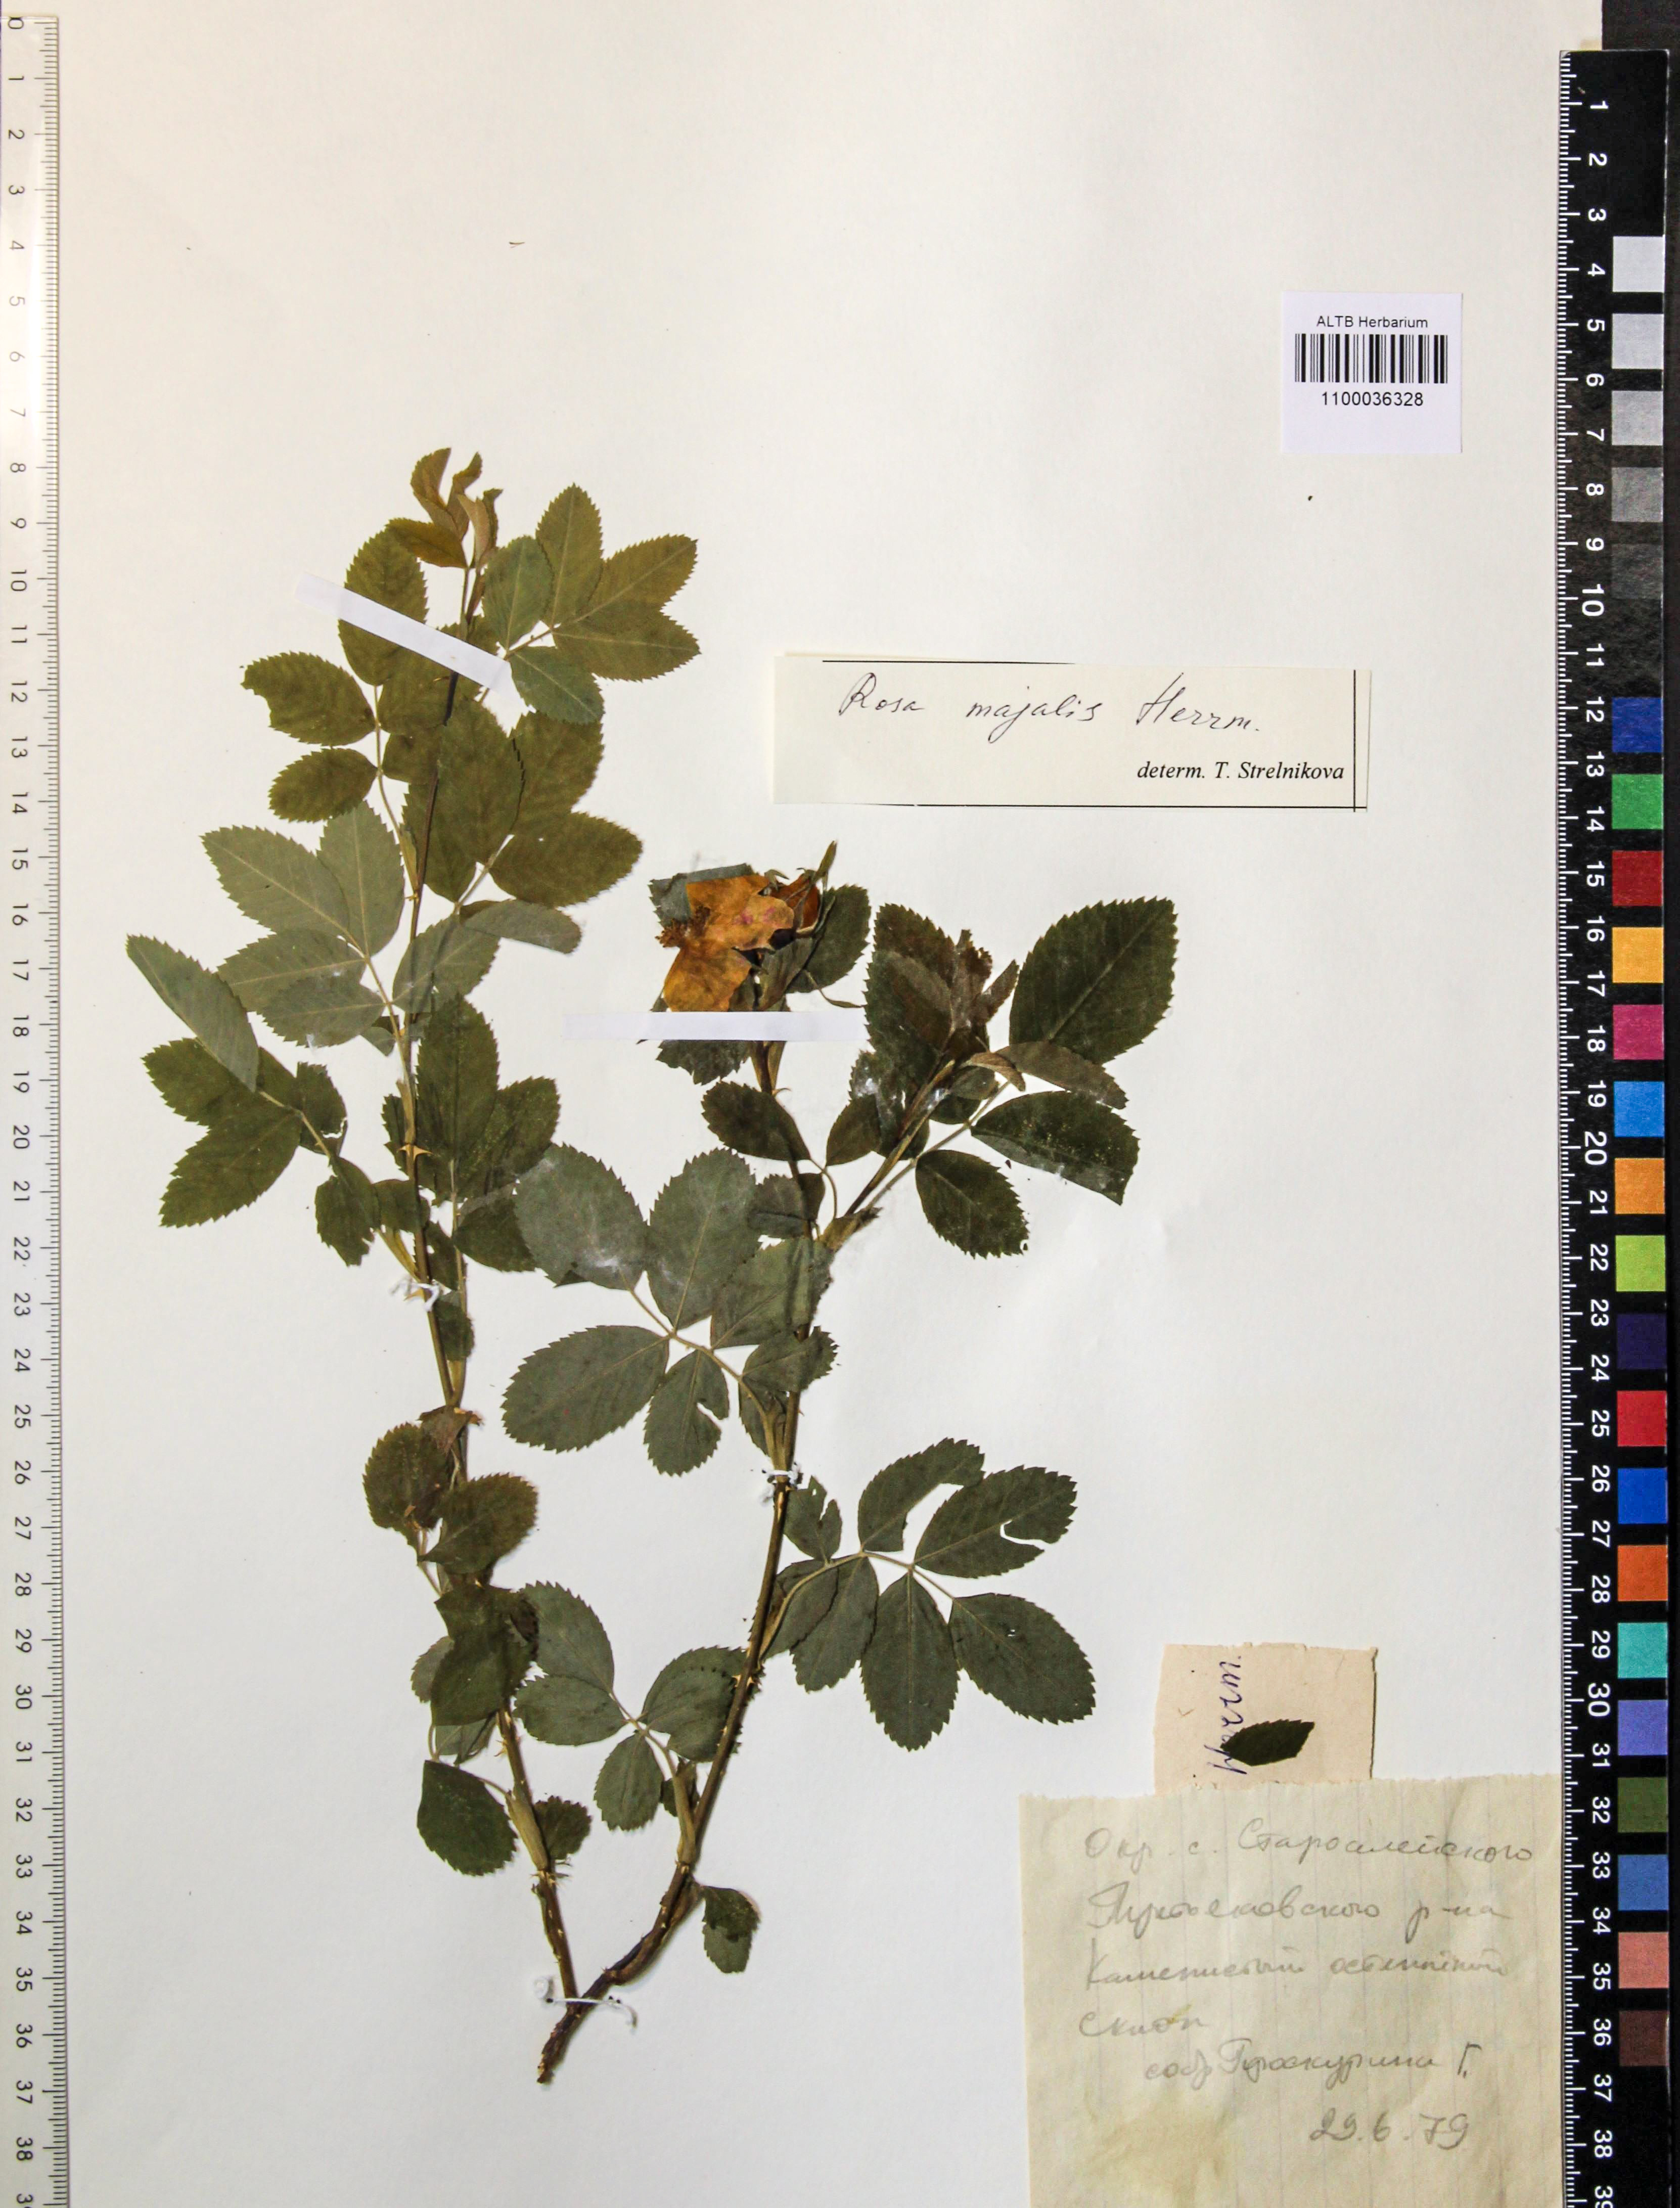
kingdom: Plantae
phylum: Tracheophyta
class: Magnoliopsida
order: Rosales
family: Rosaceae
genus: Rosa
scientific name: Rosa majalis
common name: Cinnamon rose
